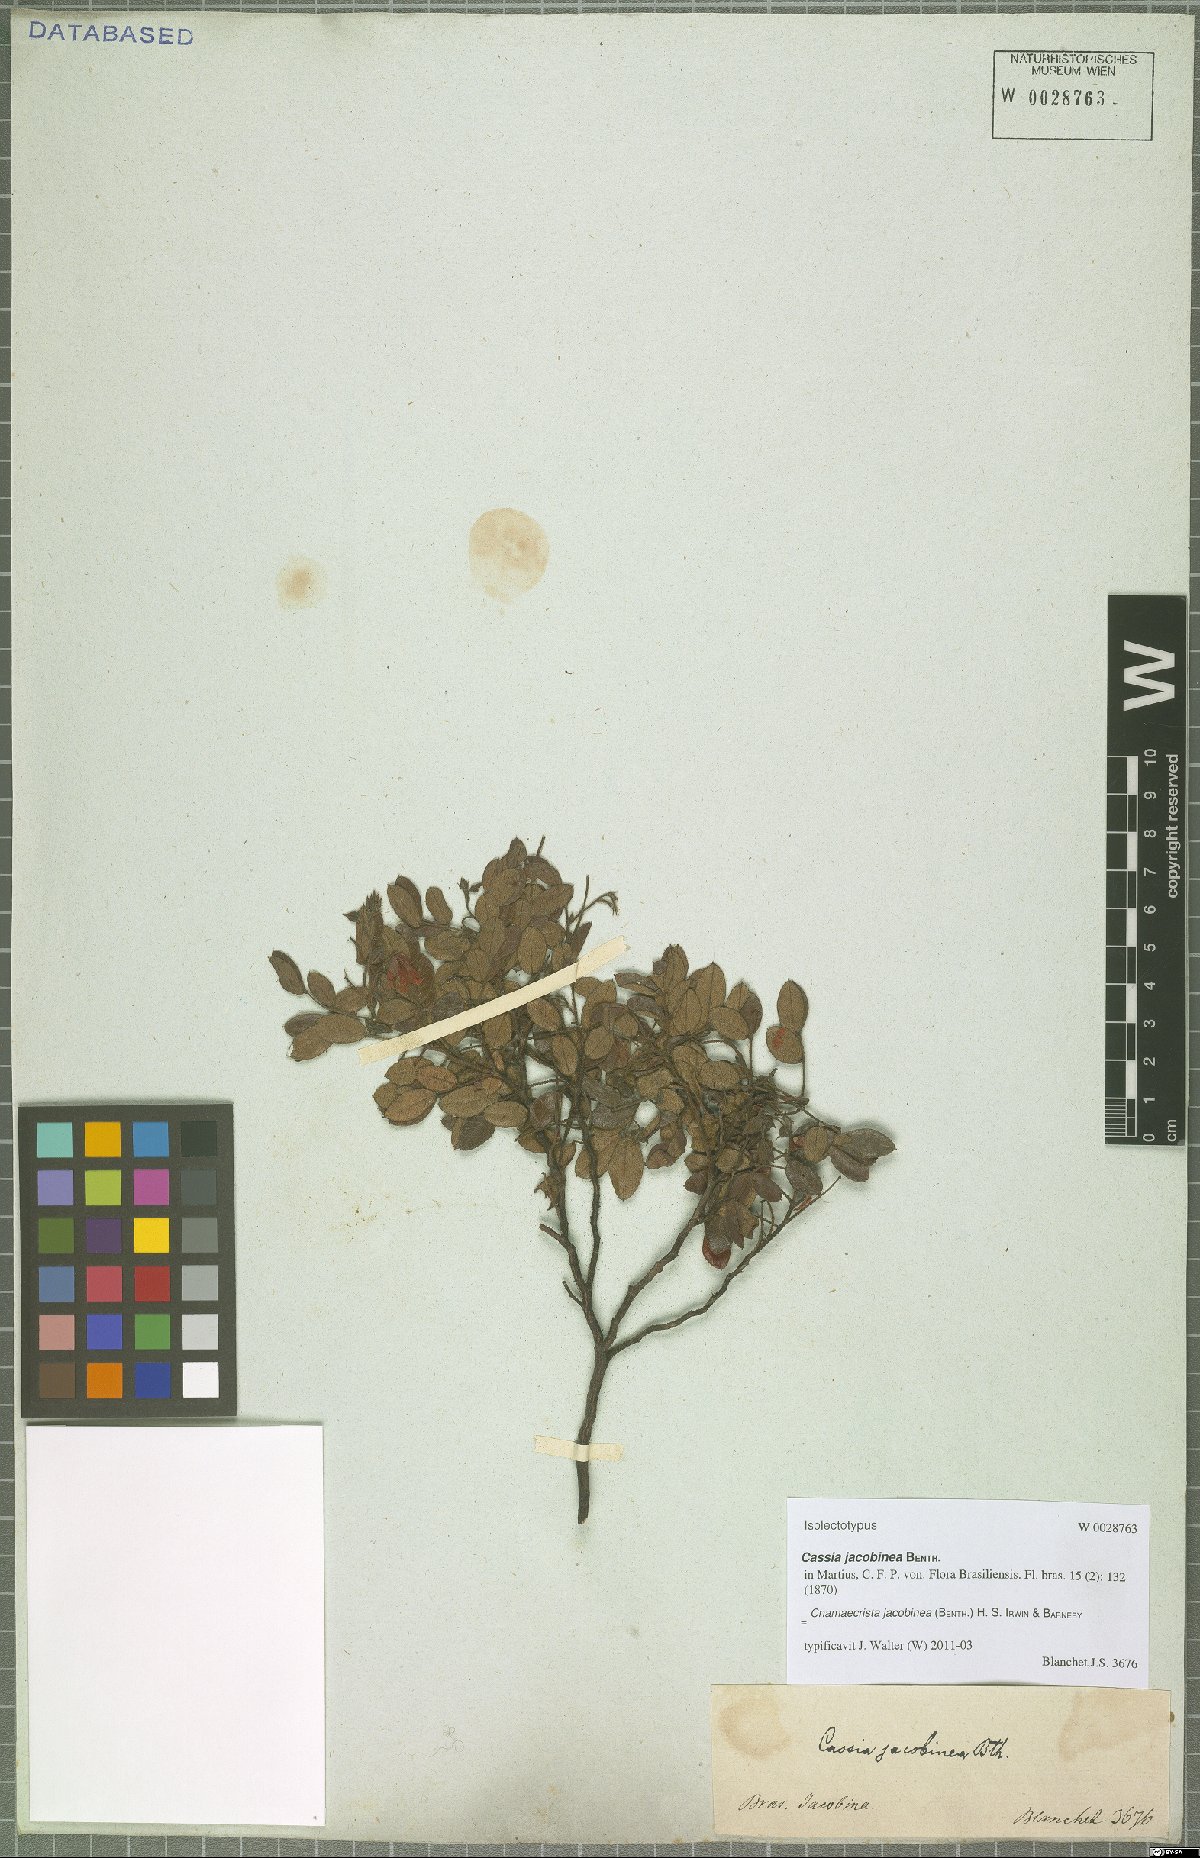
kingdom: Plantae
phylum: Tracheophyta
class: Magnoliopsida
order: Fabales
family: Fabaceae
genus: Chamaecrista
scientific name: Chamaecrista jacobinea
